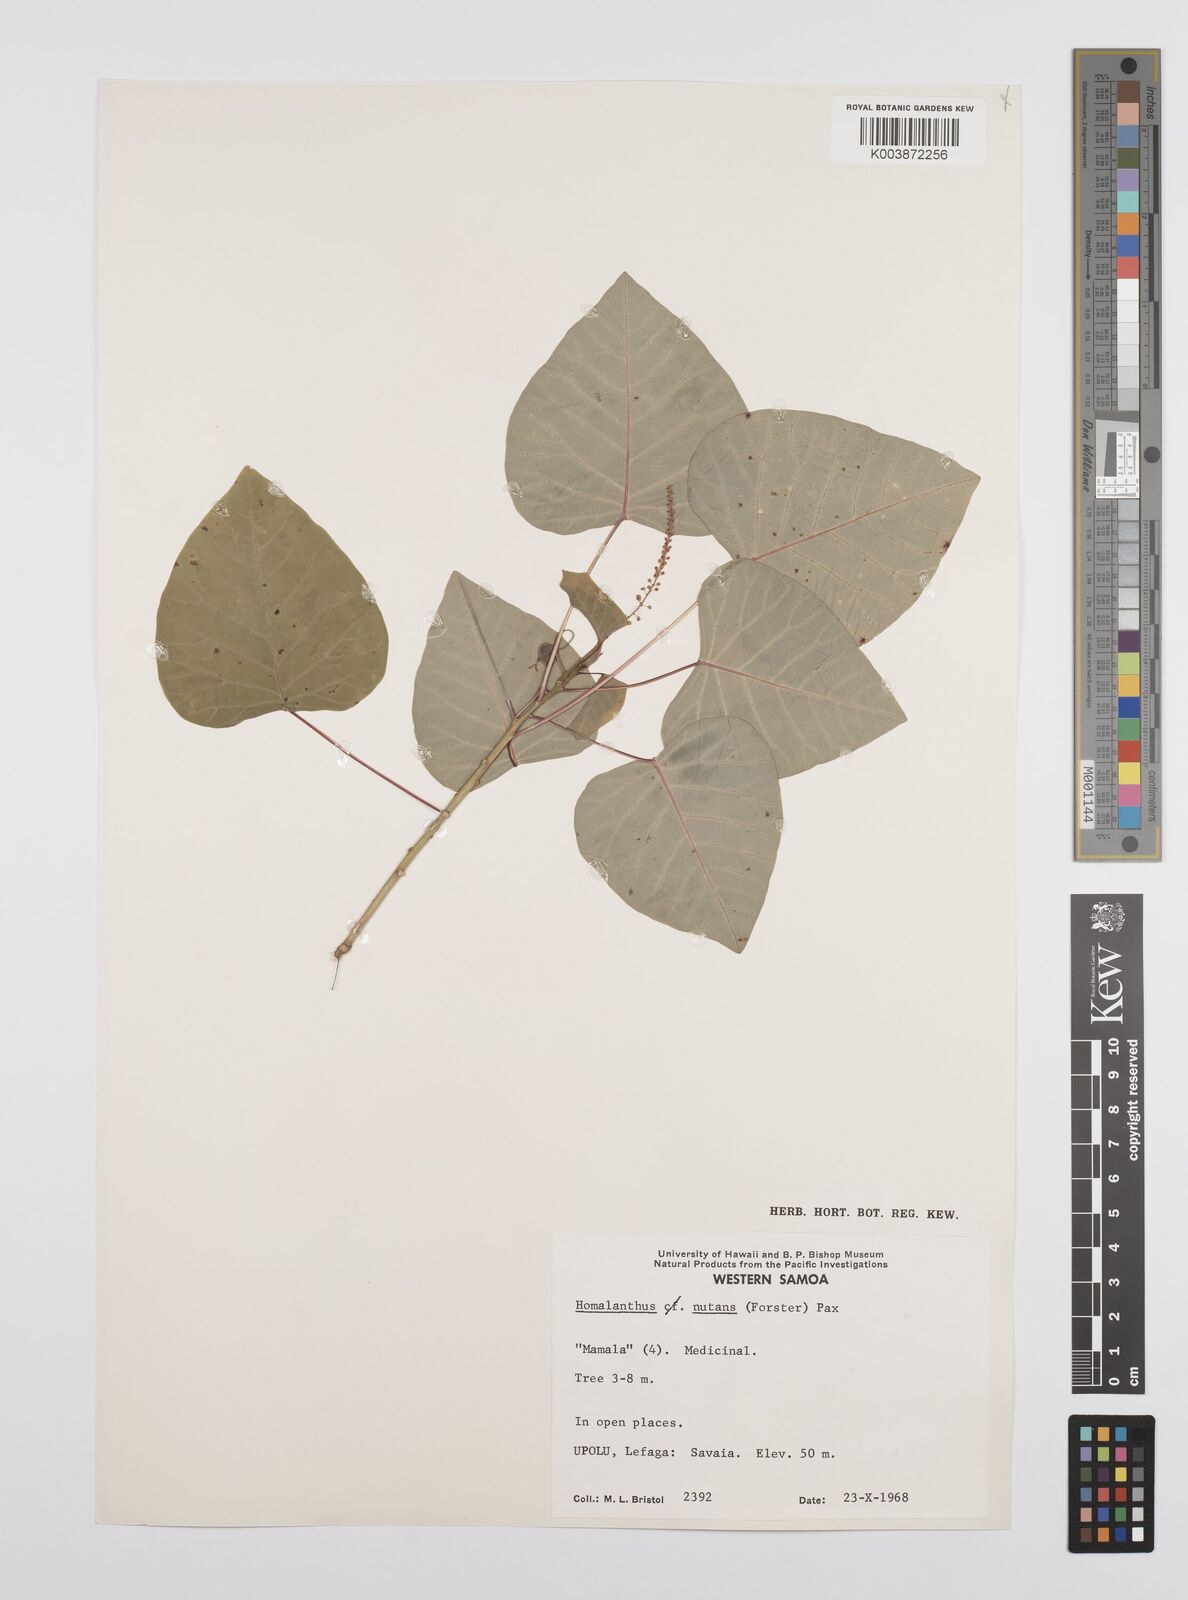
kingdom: Plantae
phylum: Tracheophyta
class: Magnoliopsida
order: Malpighiales
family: Euphorbiaceae
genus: Homalanthus
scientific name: Homalanthus nutans
